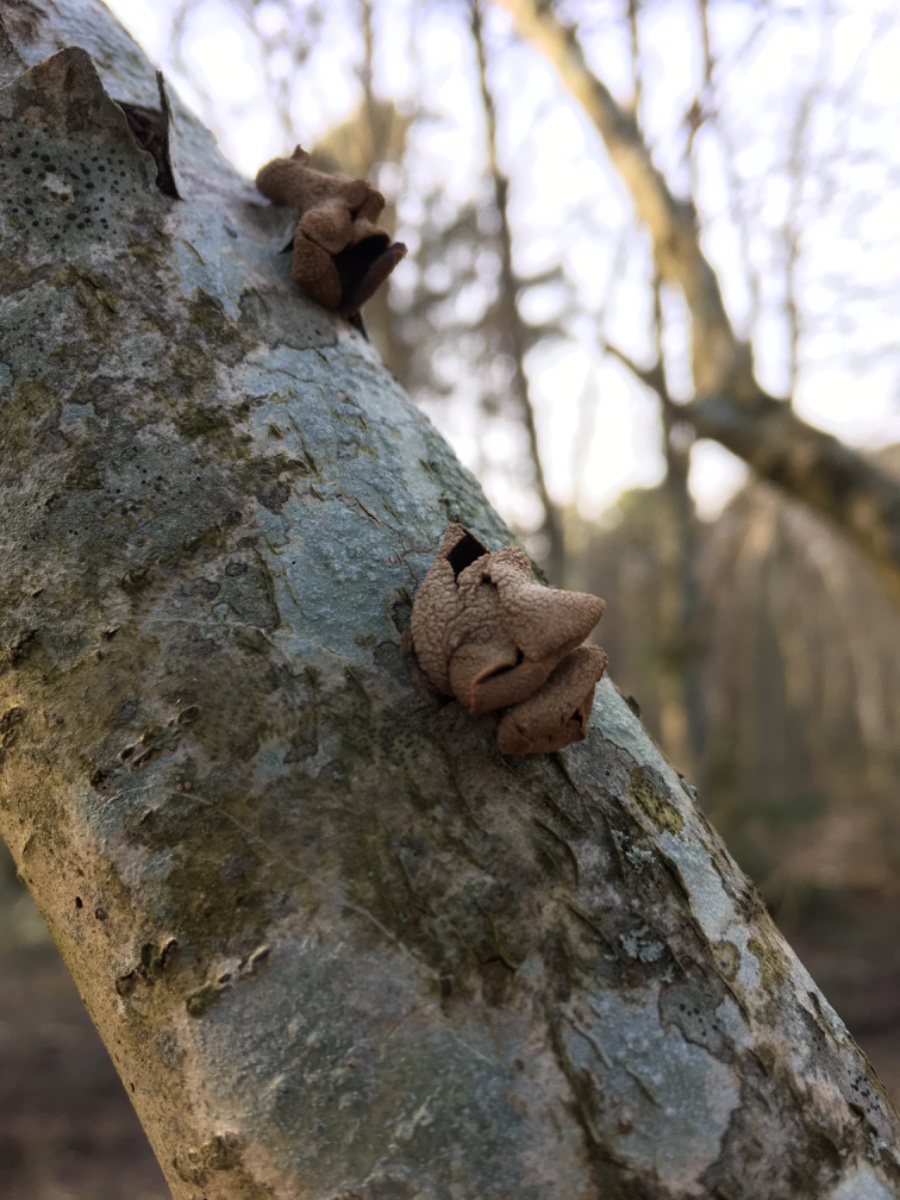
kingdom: Fungi
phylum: Ascomycota
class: Leotiomycetes
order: Helotiales
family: Cenangiaceae
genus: Encoelia
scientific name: Encoelia furfuracea
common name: hassel-læderskive
